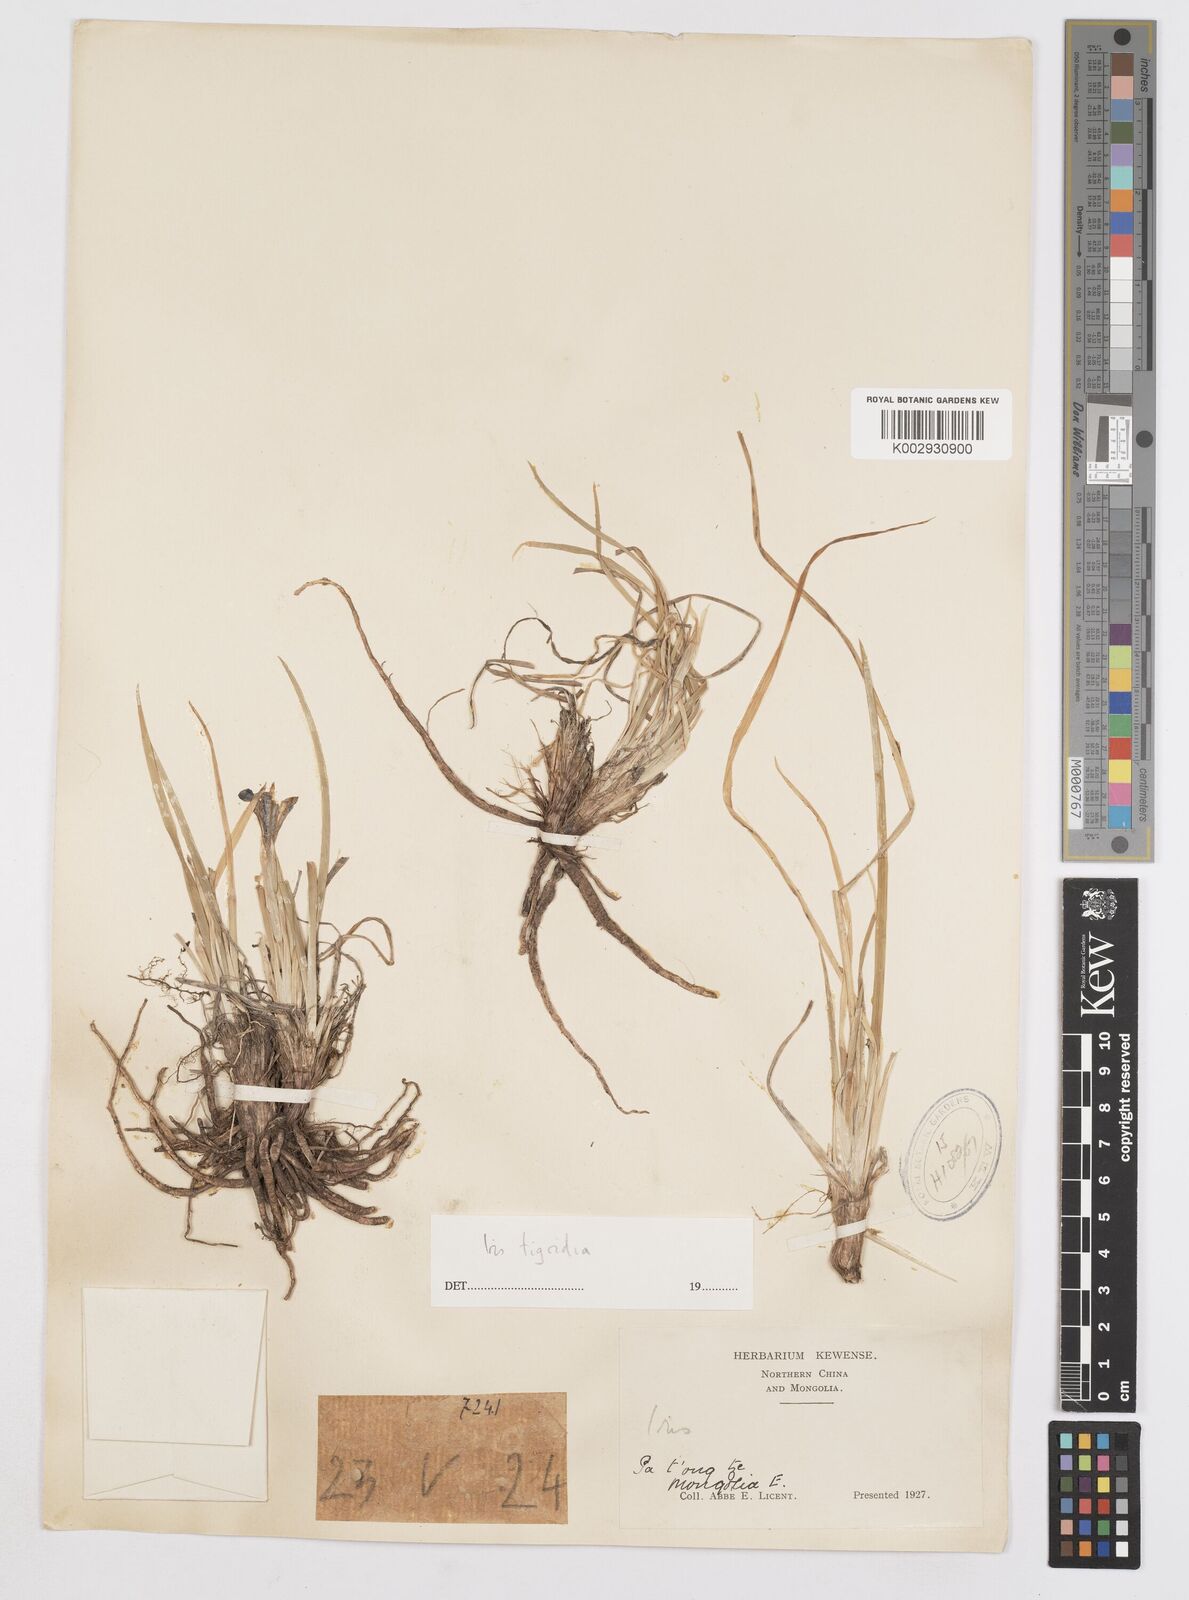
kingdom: Plantae
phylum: Tracheophyta
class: Liliopsida
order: Asparagales
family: Iridaceae
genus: Iris
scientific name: Iris tigridia
